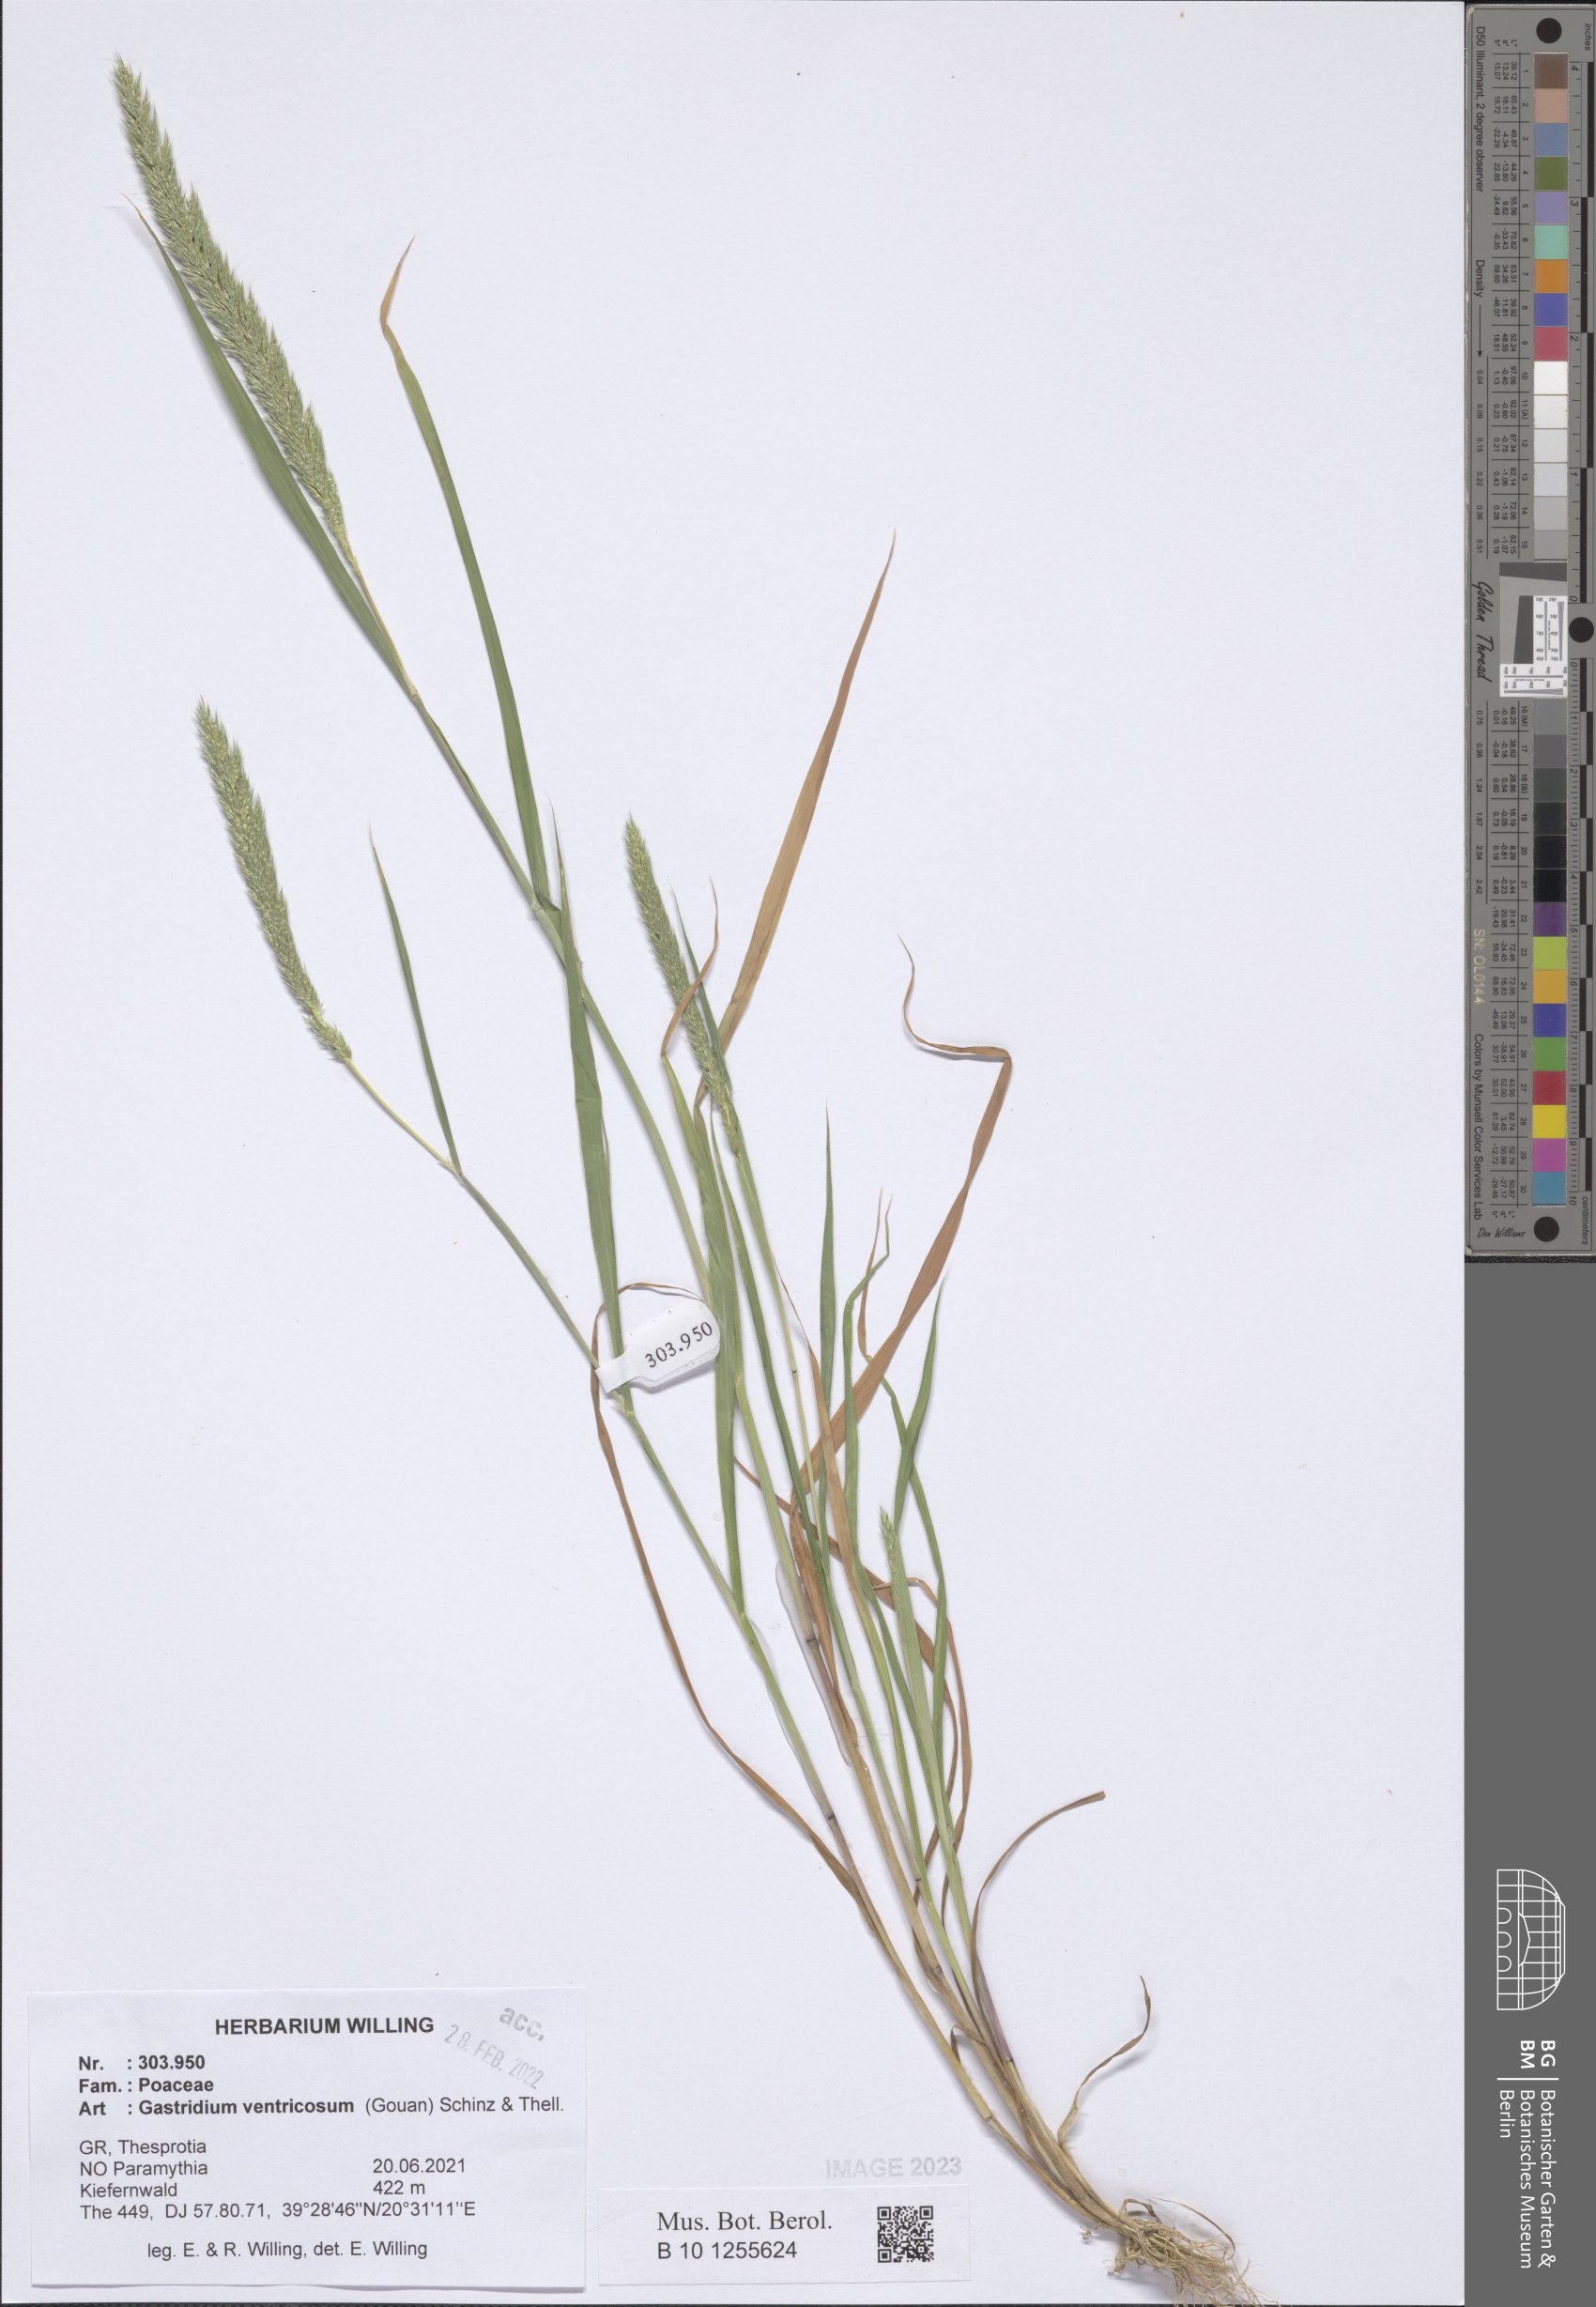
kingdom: Plantae
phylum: Tracheophyta
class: Liliopsida
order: Poales
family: Poaceae
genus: Gastridium
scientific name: Gastridium ventricosum
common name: Nit-grass
